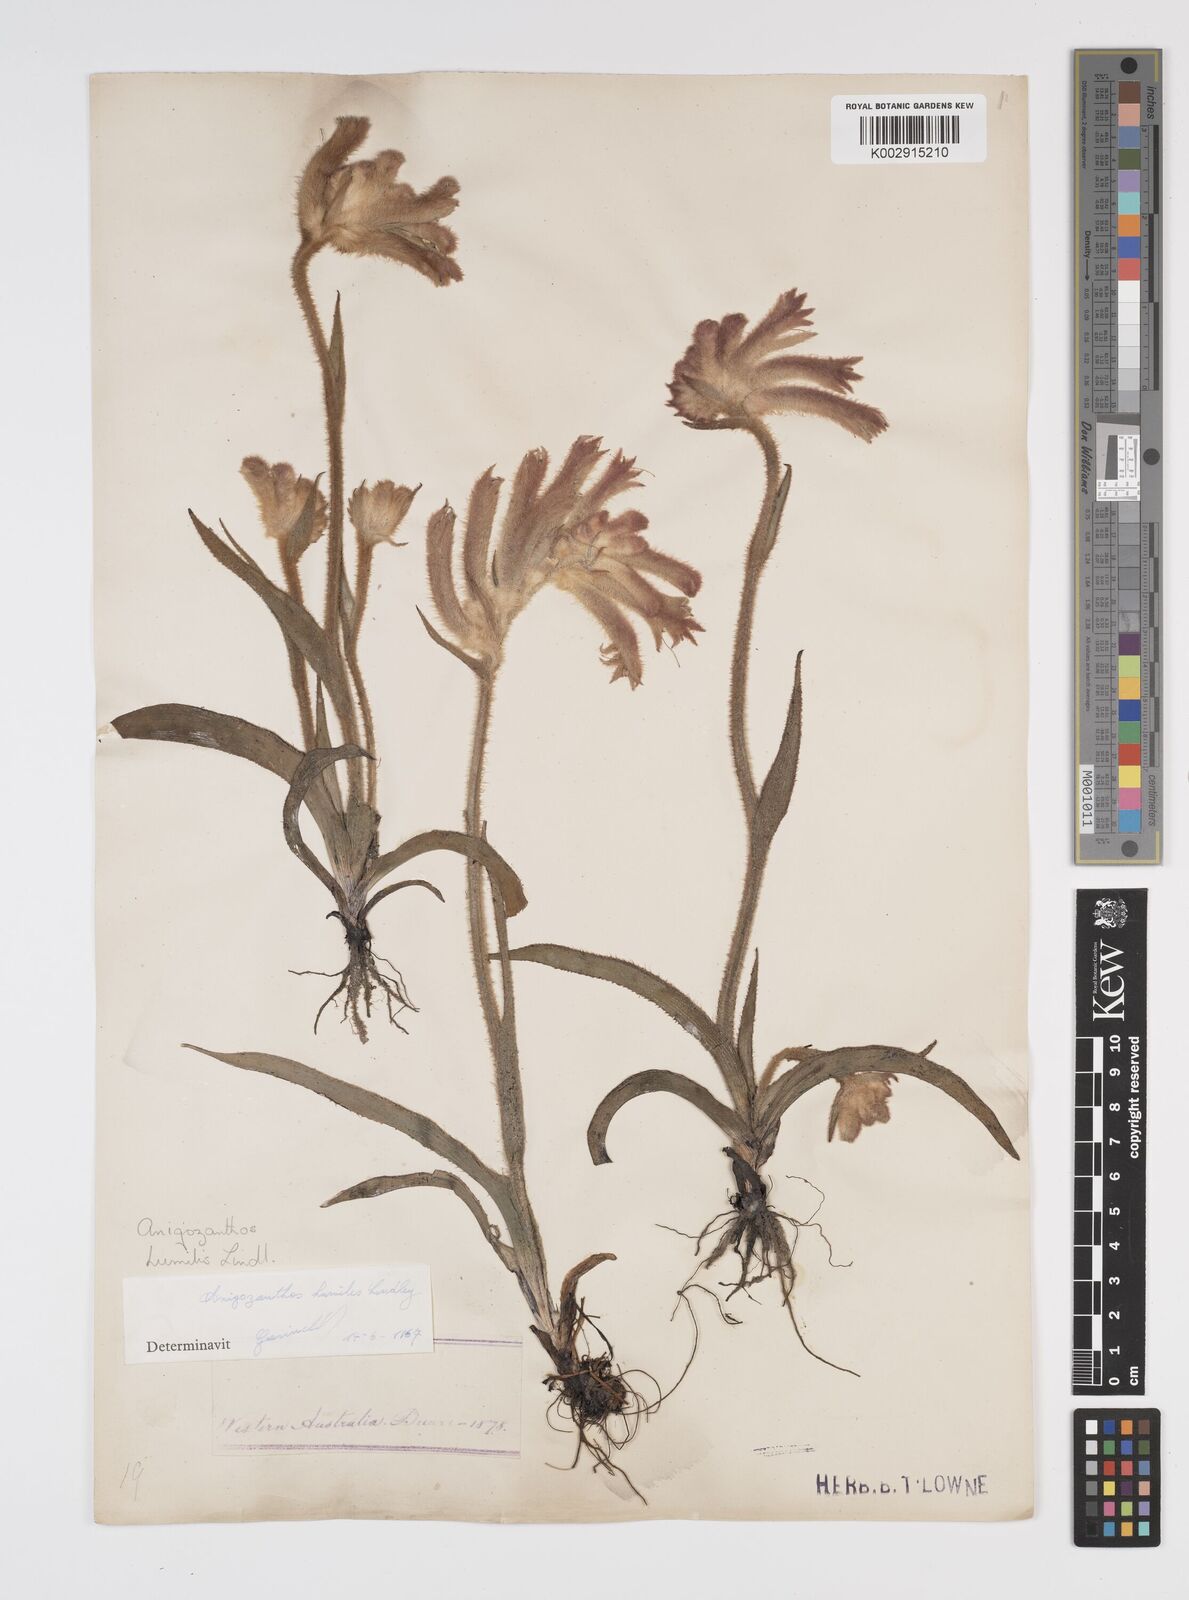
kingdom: Plantae
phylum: Tracheophyta
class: Liliopsida
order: Commelinales
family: Haemodoraceae
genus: Anigozanthos
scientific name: Anigozanthos humilis
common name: Cat's-paw
